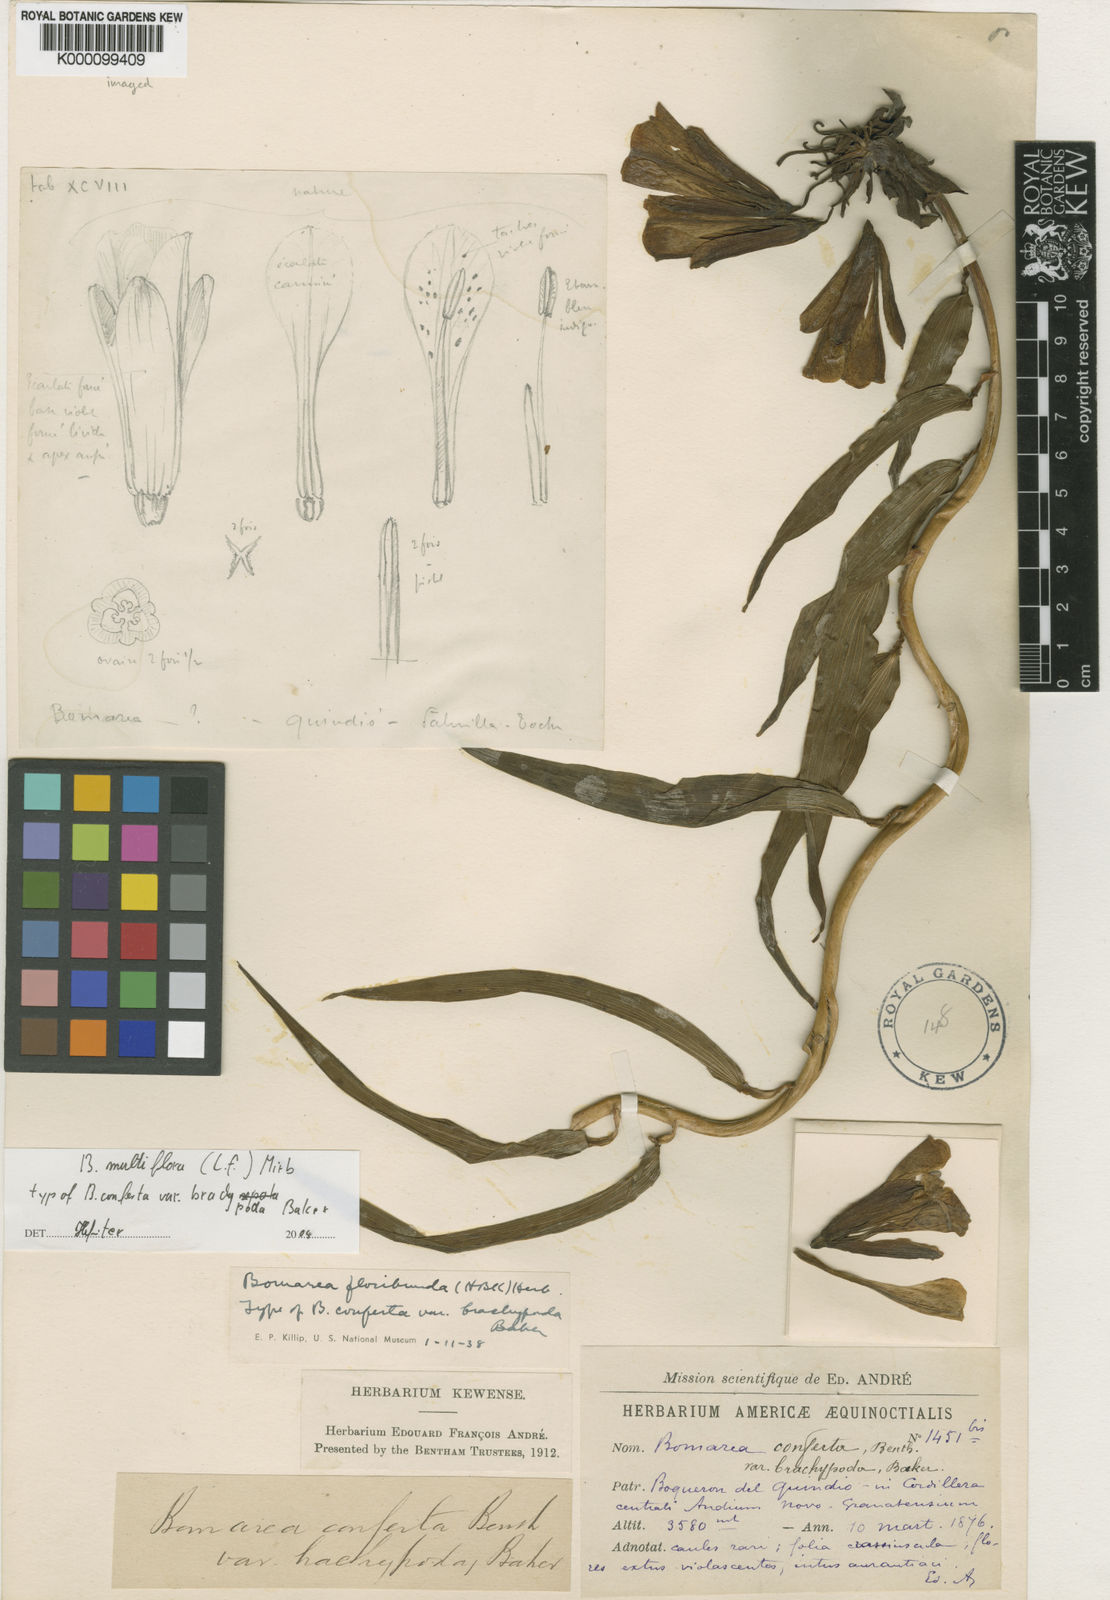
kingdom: Plantae
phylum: Tracheophyta
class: Liliopsida
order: Liliales
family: Alstroemeriaceae
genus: Bomarea
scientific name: Bomarea multiflora
